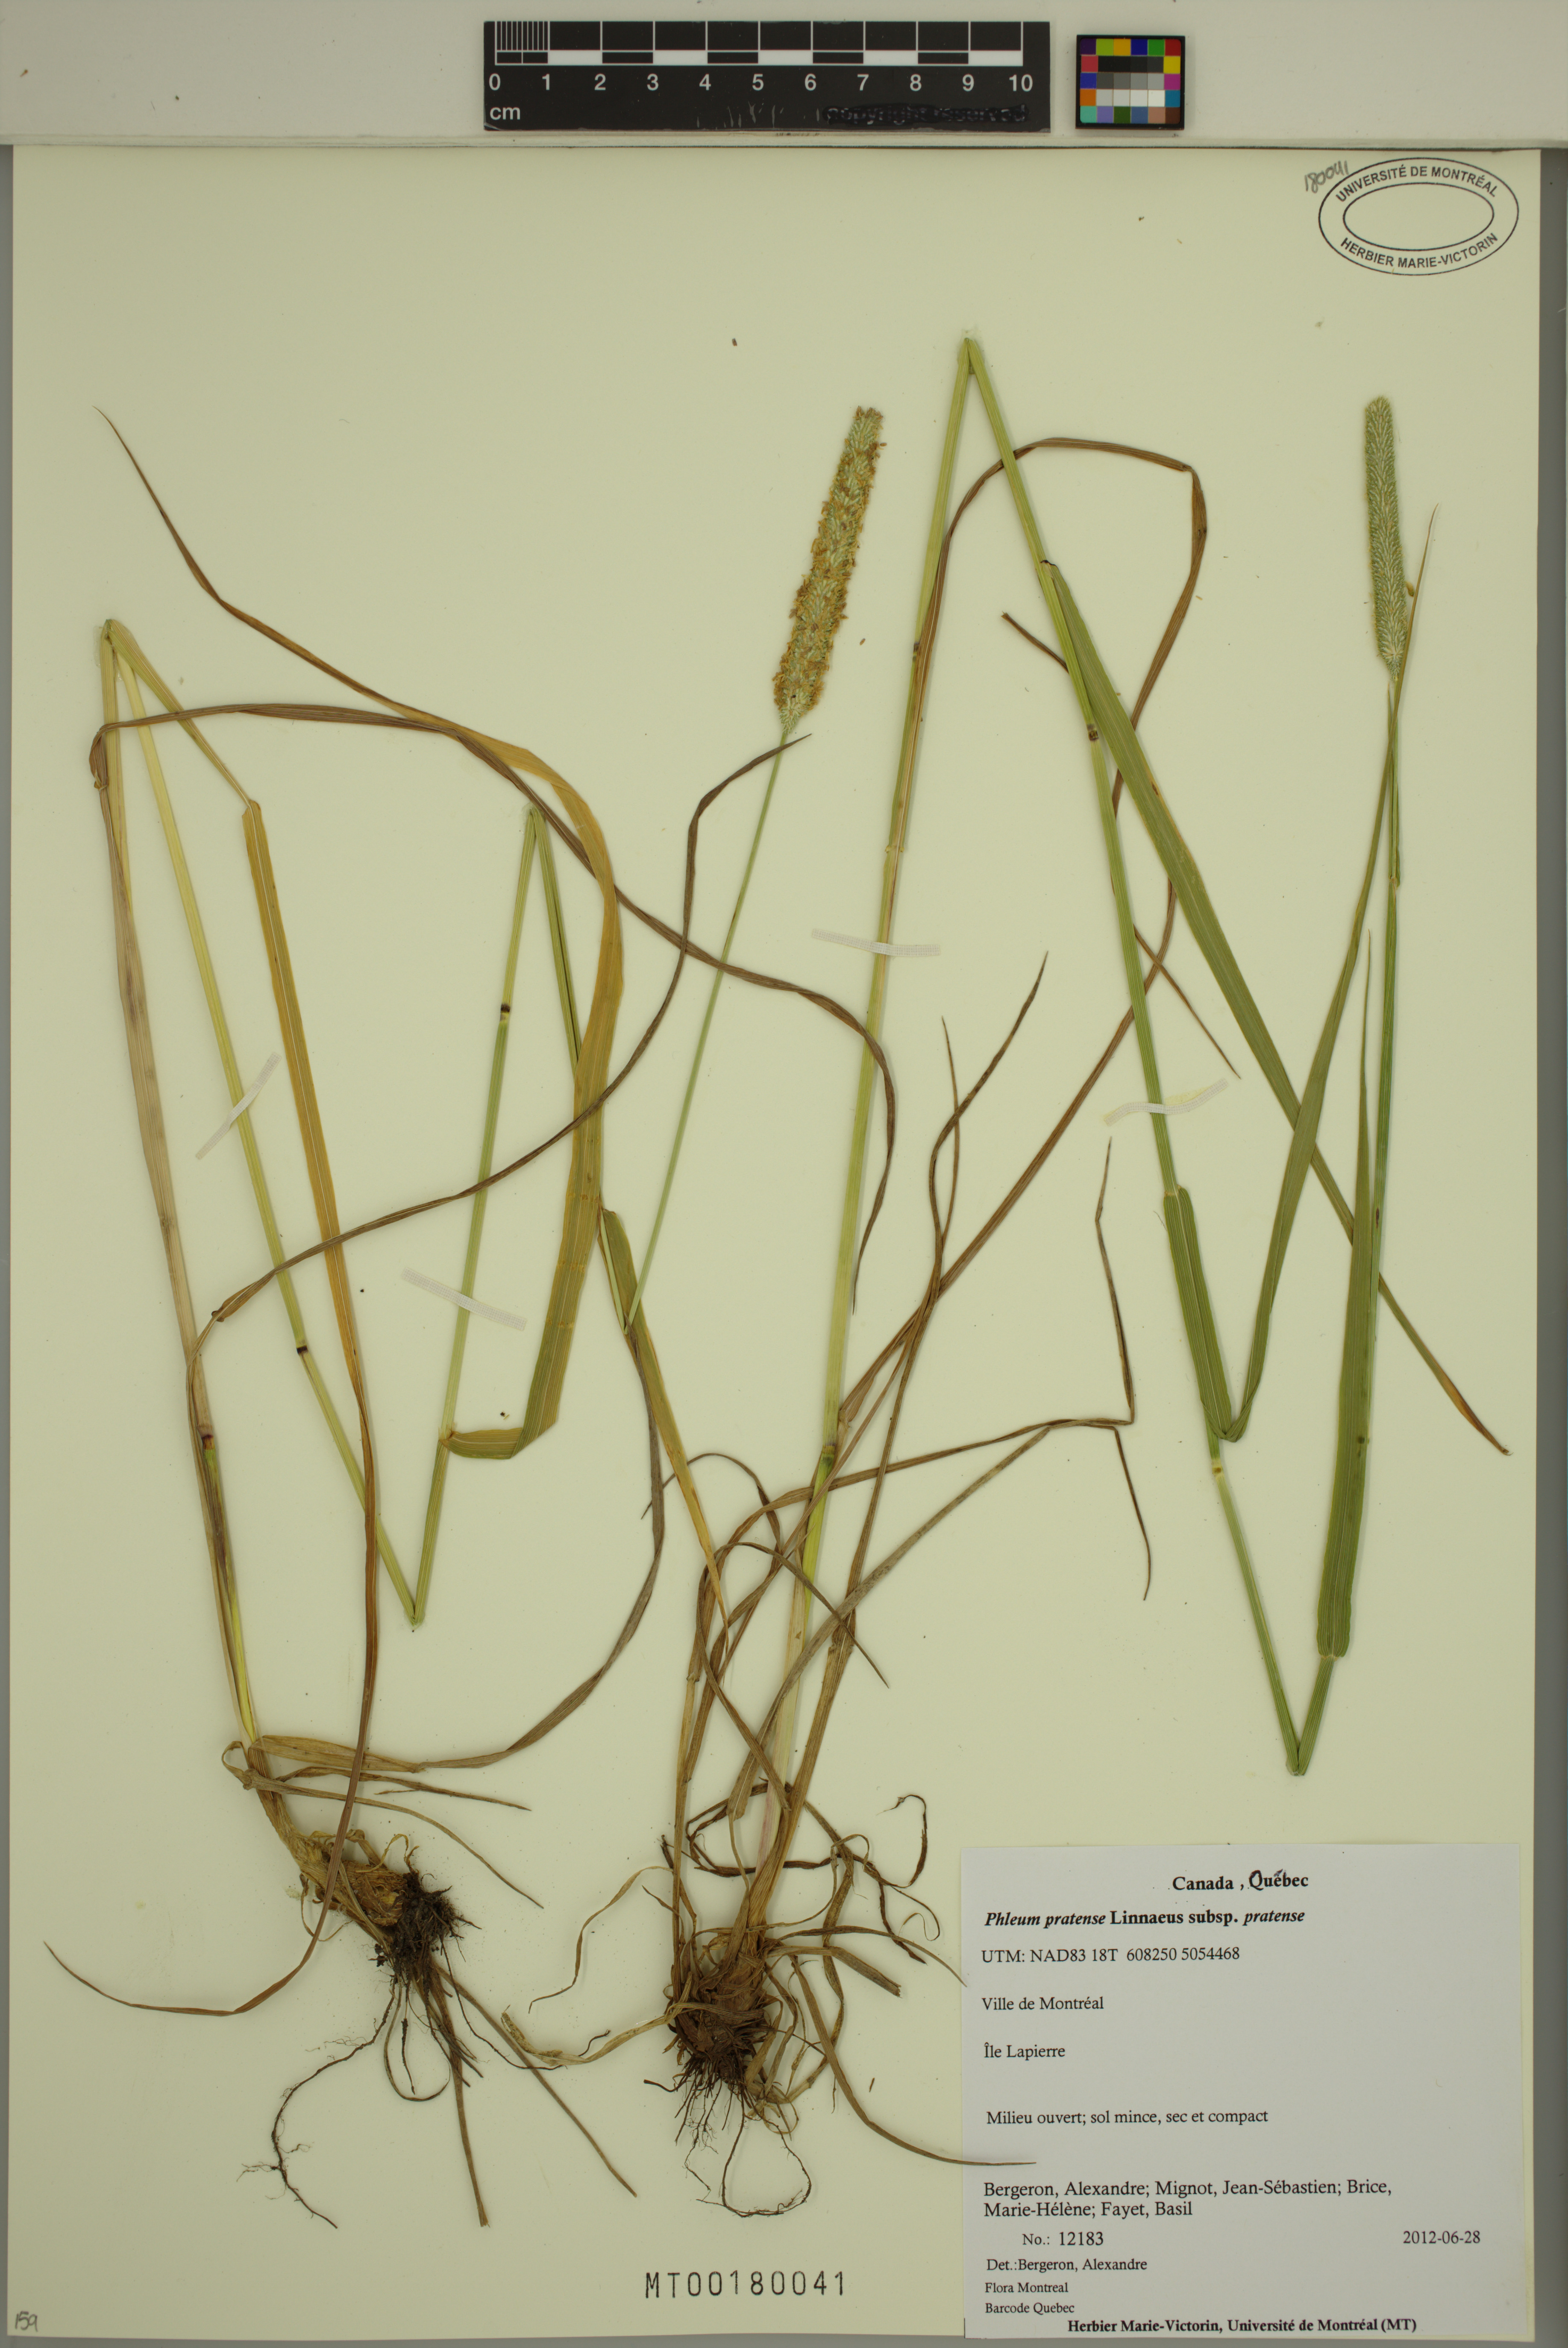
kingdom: Plantae
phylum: Tracheophyta
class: Liliopsida
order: Poales
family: Poaceae
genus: Phleum
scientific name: Phleum pratense
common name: Timothy grass
